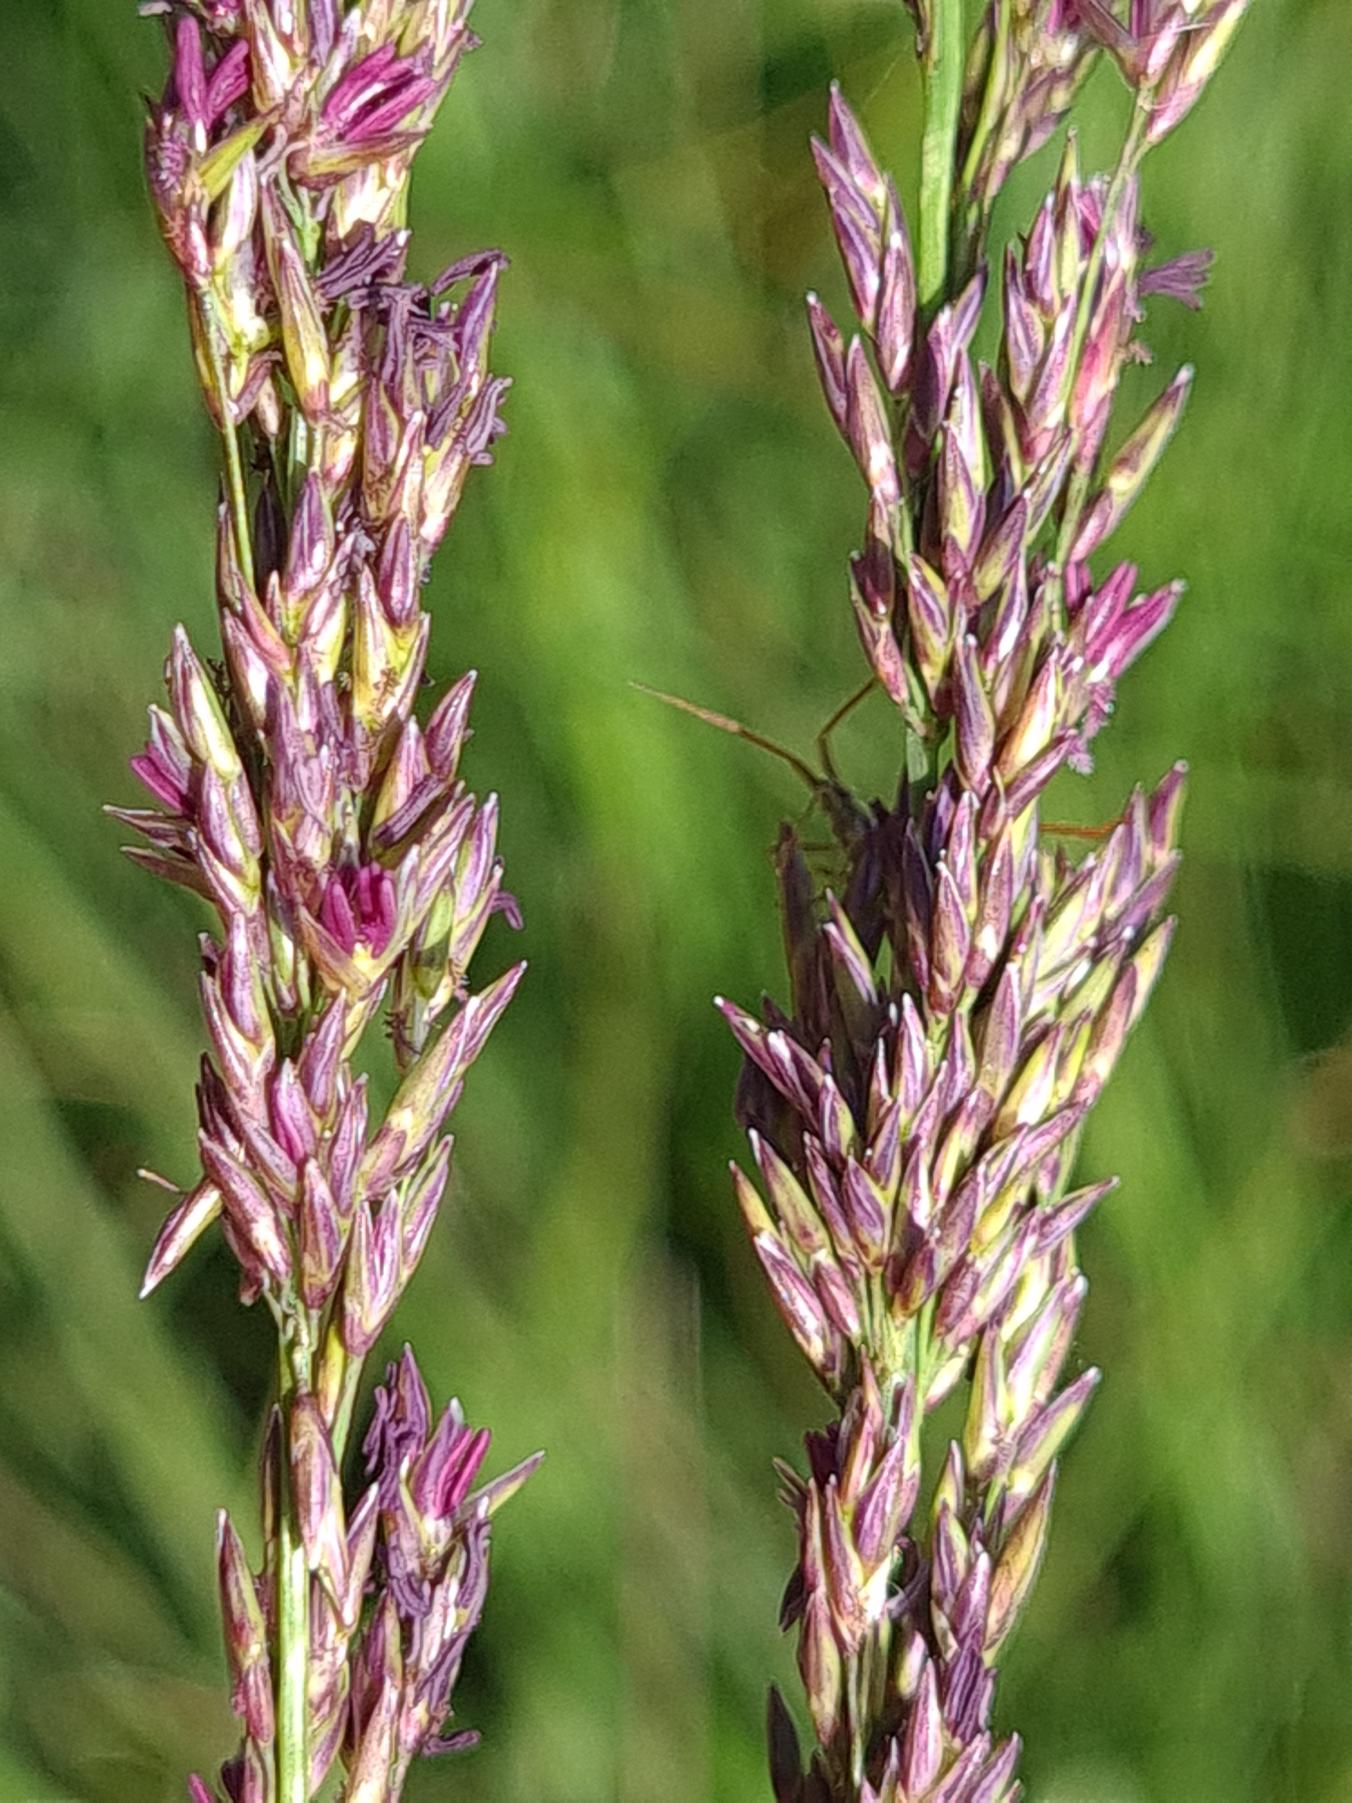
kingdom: Plantae
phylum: Tracheophyta
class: Liliopsida
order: Poales
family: Poaceae
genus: Molinia
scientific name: Molinia caerulea
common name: Blåtop
